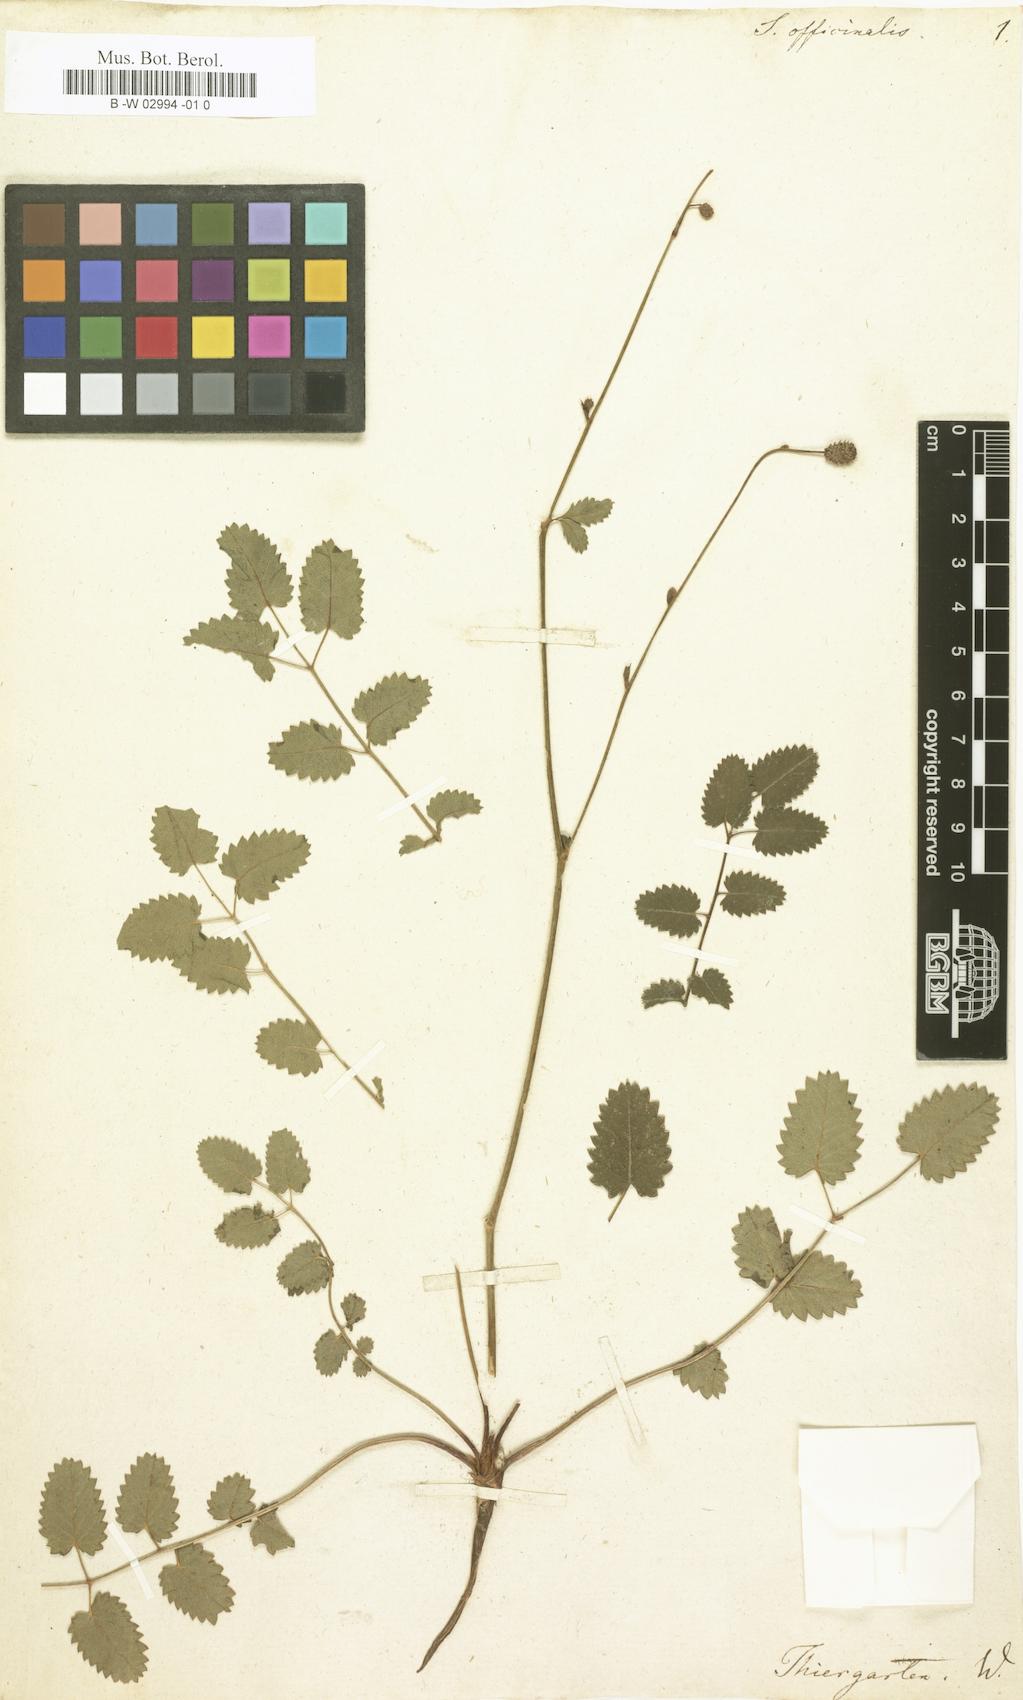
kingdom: Plantae
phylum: Tracheophyta
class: Magnoliopsida
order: Rosales
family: Rosaceae
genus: Sanguisorba
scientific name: Sanguisorba officinalis
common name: Great burnet
